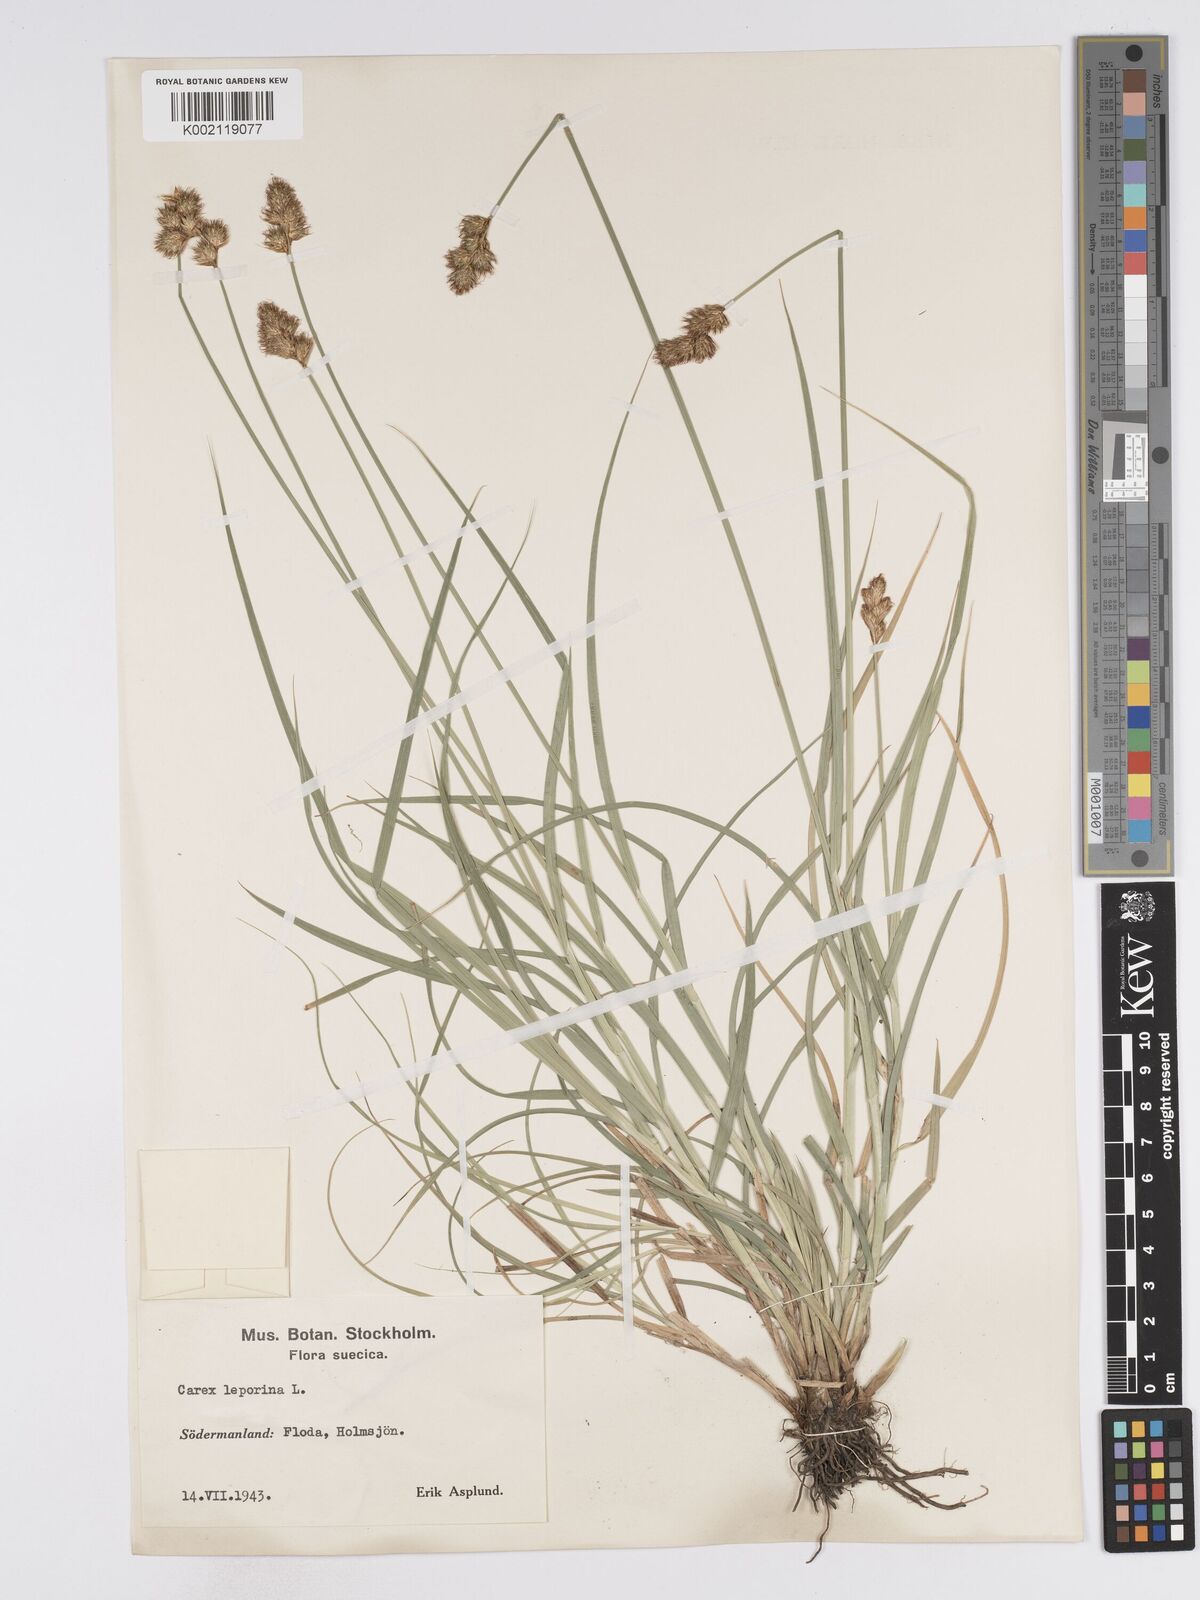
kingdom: Plantae
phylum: Tracheophyta
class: Liliopsida
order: Poales
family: Cyperaceae
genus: Carex
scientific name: Carex leporina
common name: Oval sedge
